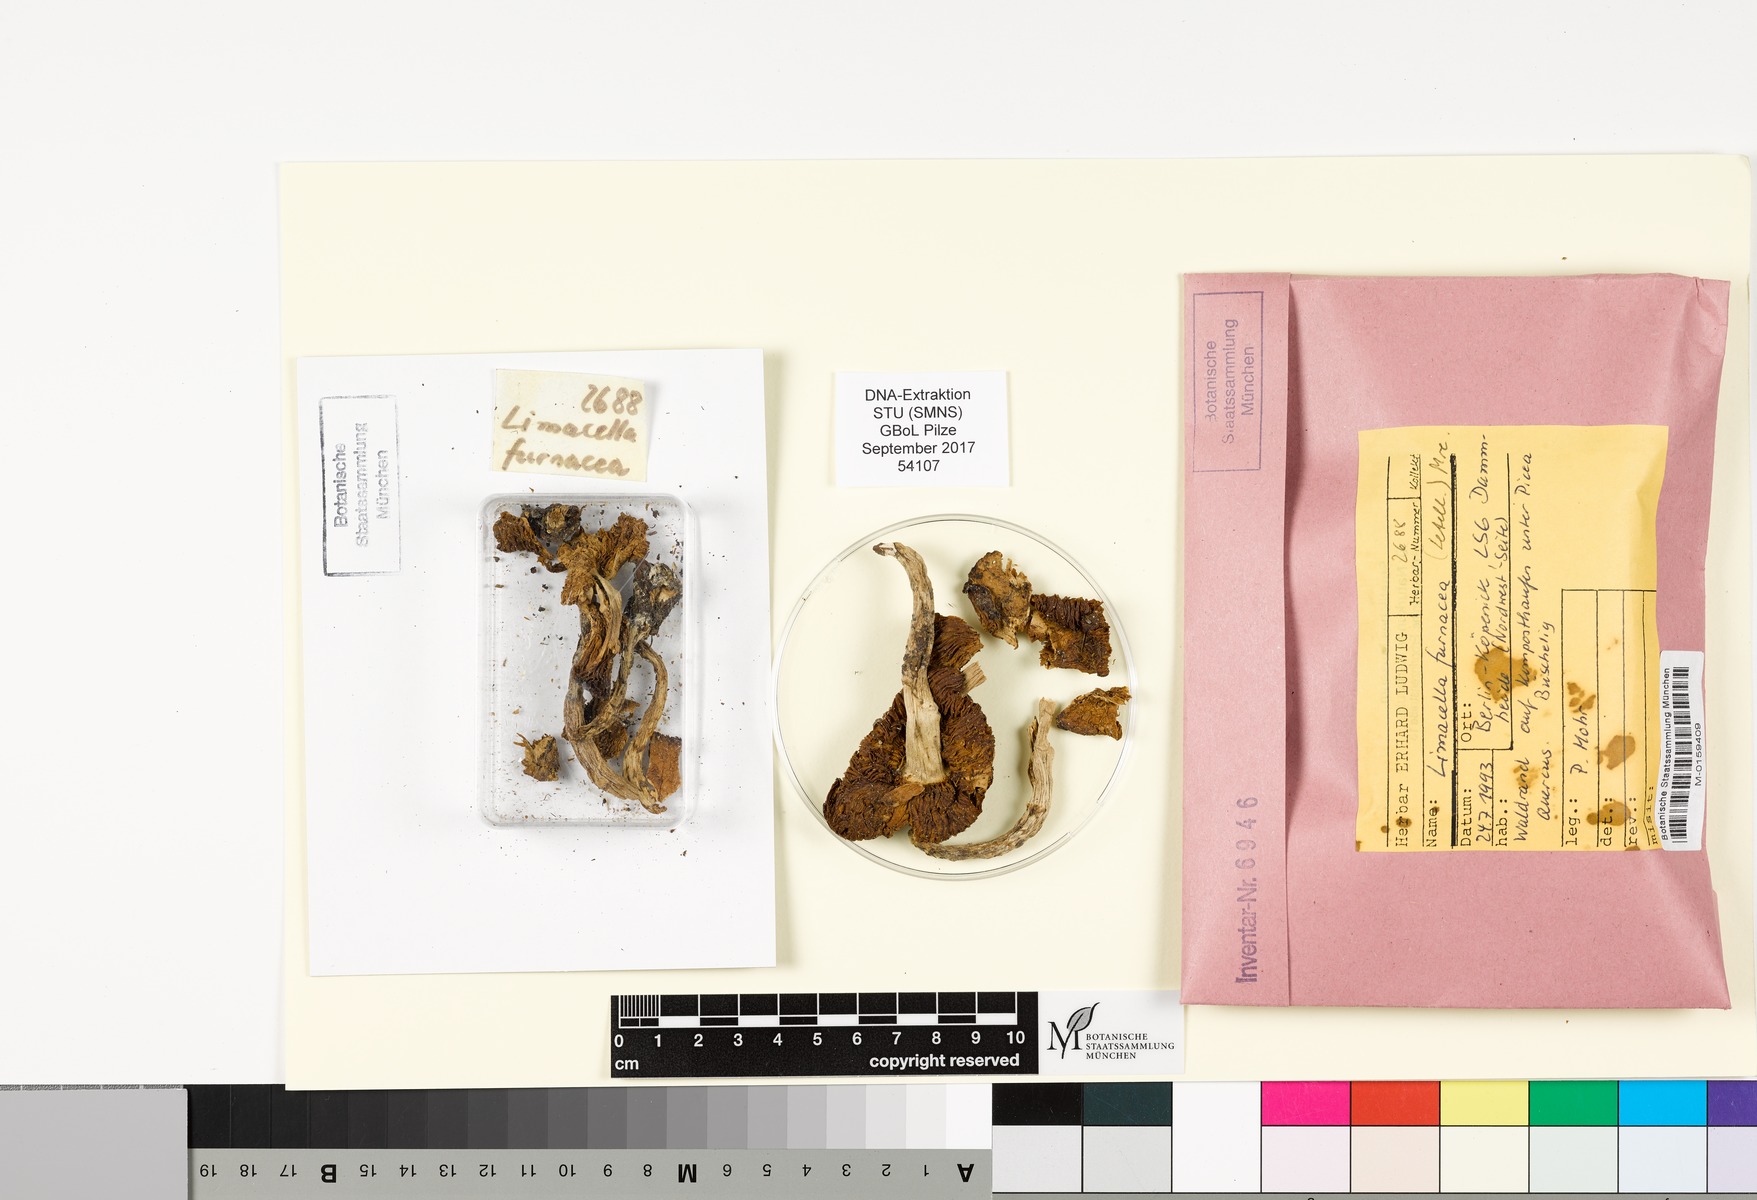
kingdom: Fungi
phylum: Basidiomycota
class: Agaricomycetes
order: Agaricales
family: Amanitaceae
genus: Limacella
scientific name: Limacella furnacea
